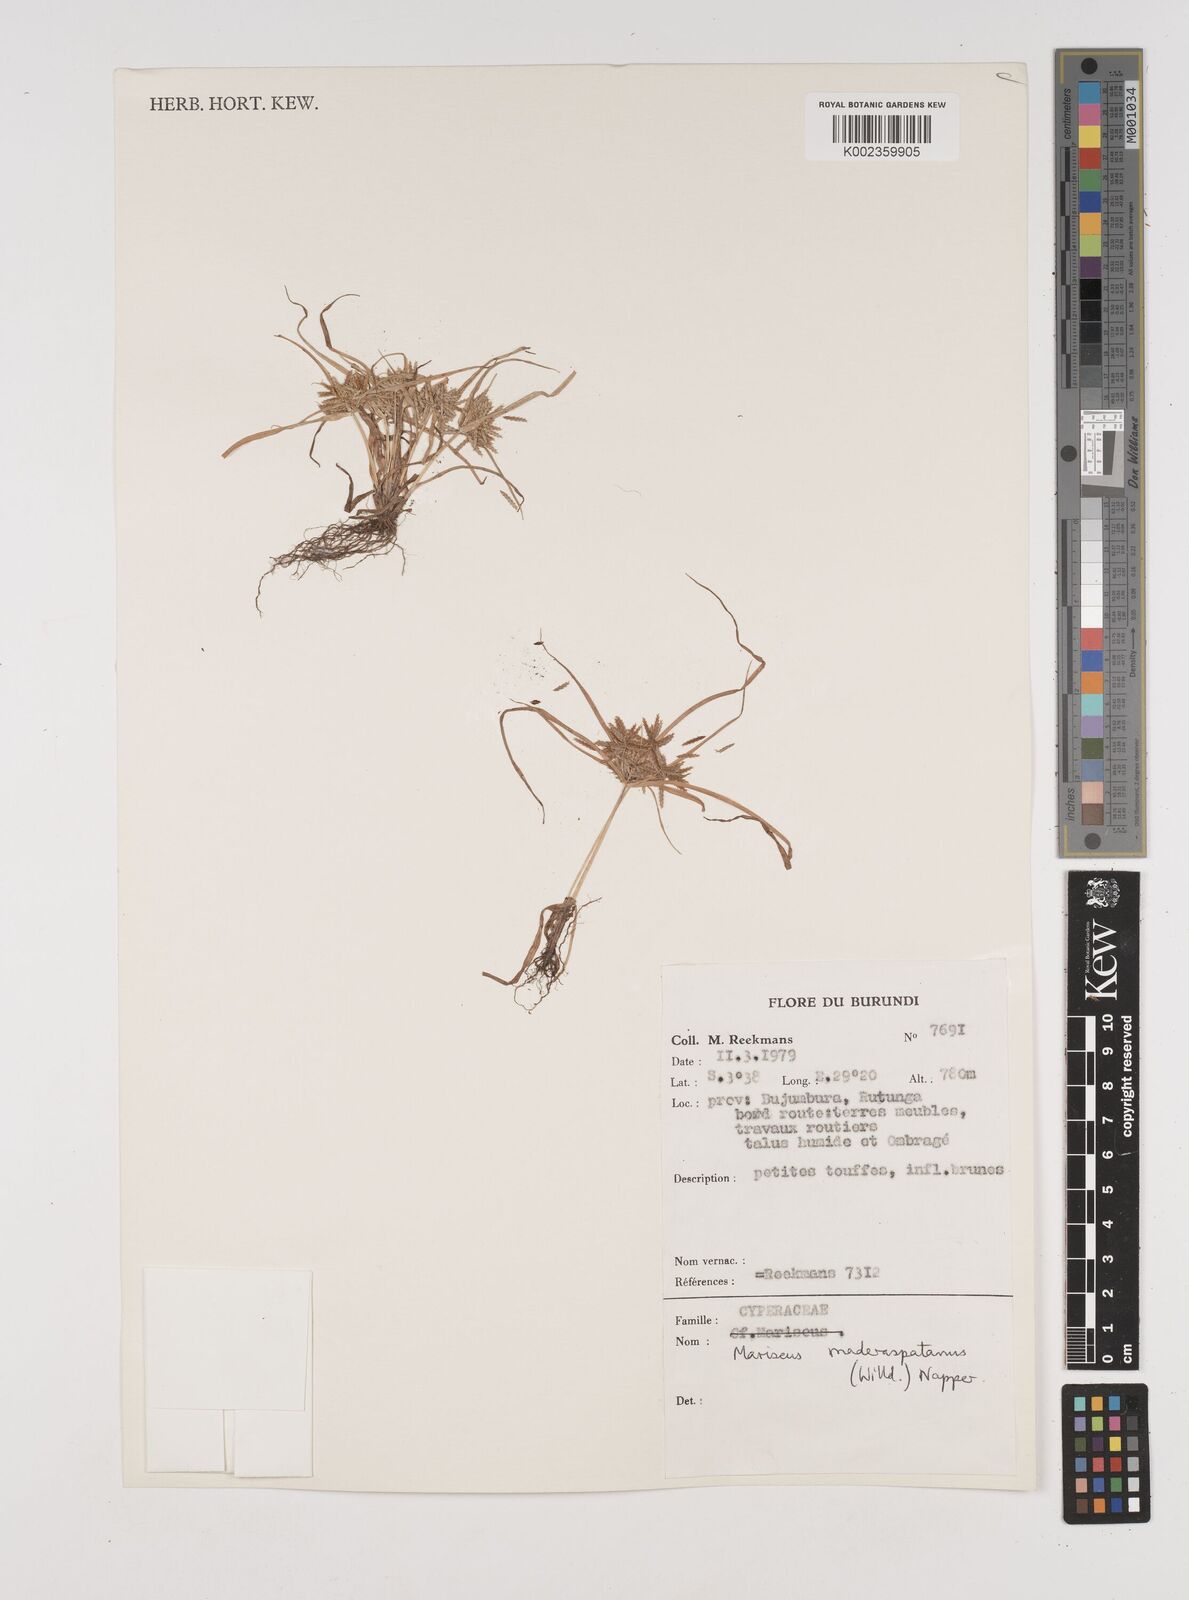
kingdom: Plantae
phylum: Tracheophyta
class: Liliopsida
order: Poales
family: Cyperaceae
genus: Cyperus
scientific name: Cyperus maderaspatanus
